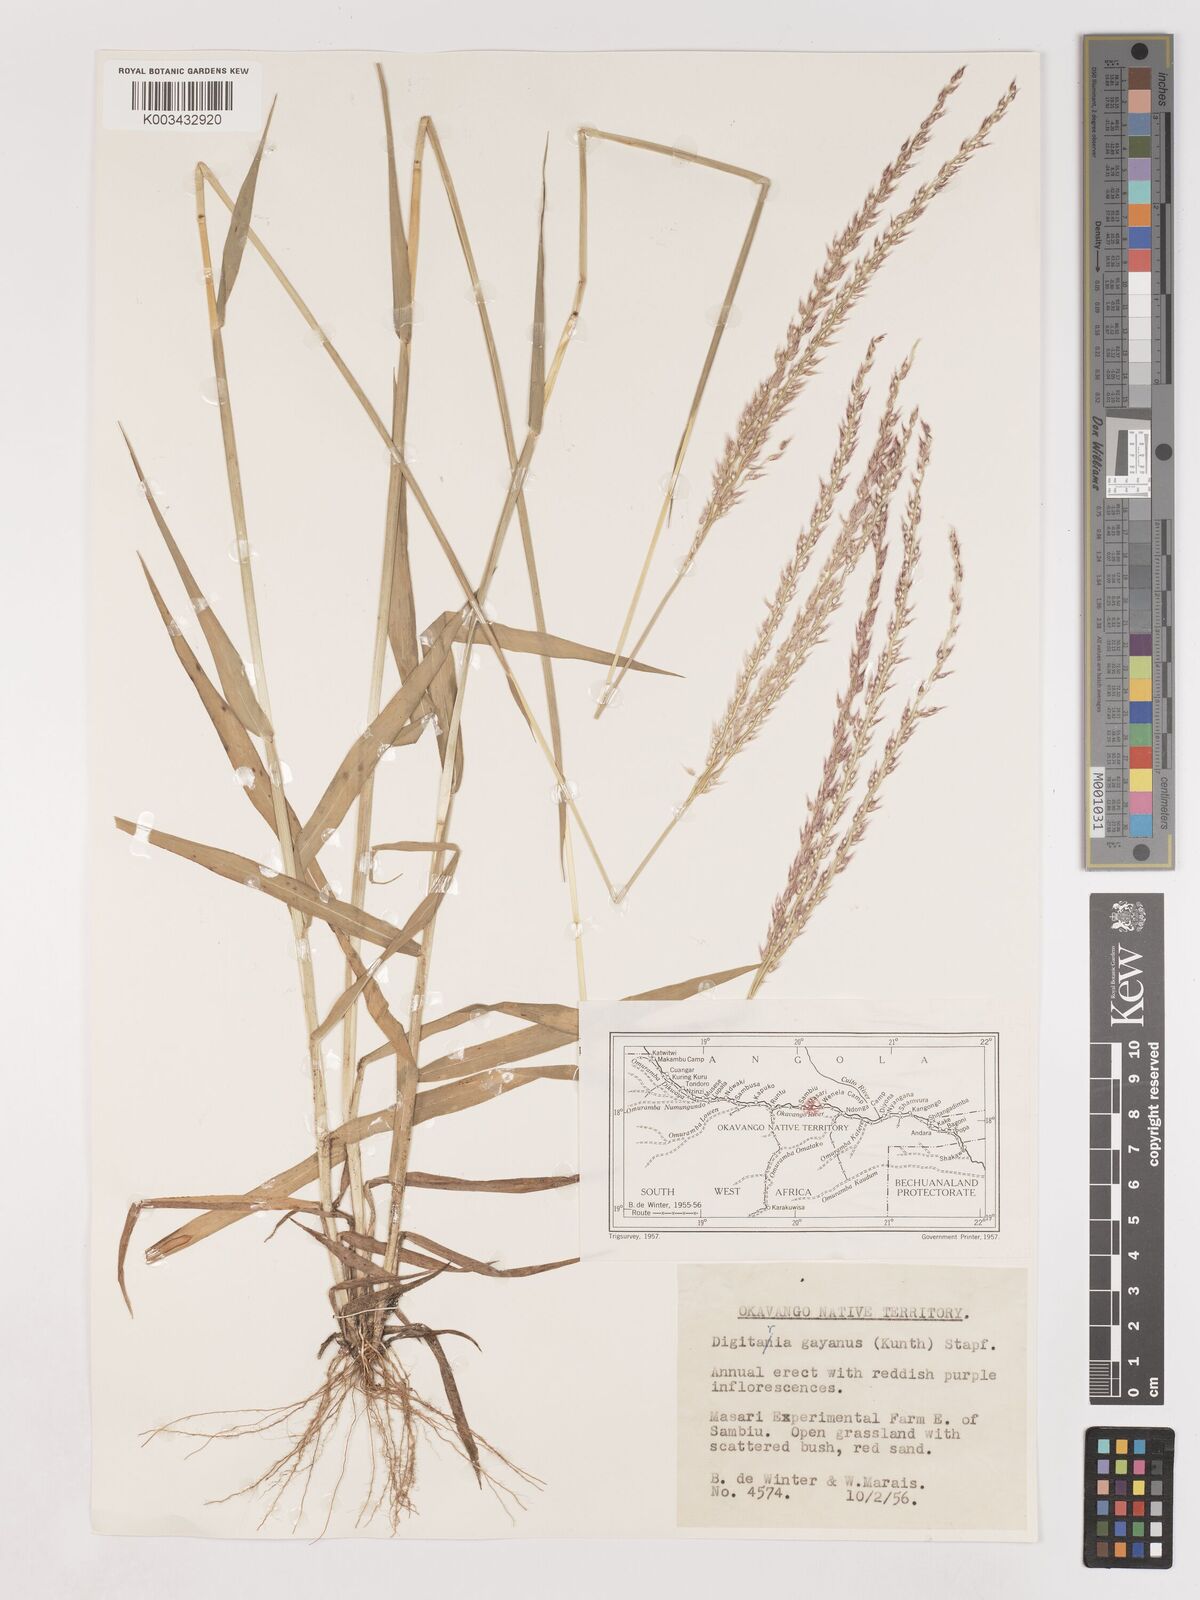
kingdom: Plantae
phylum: Tracheophyta
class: Liliopsida
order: Poales
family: Poaceae
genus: Digitaria
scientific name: Digitaria gayana
